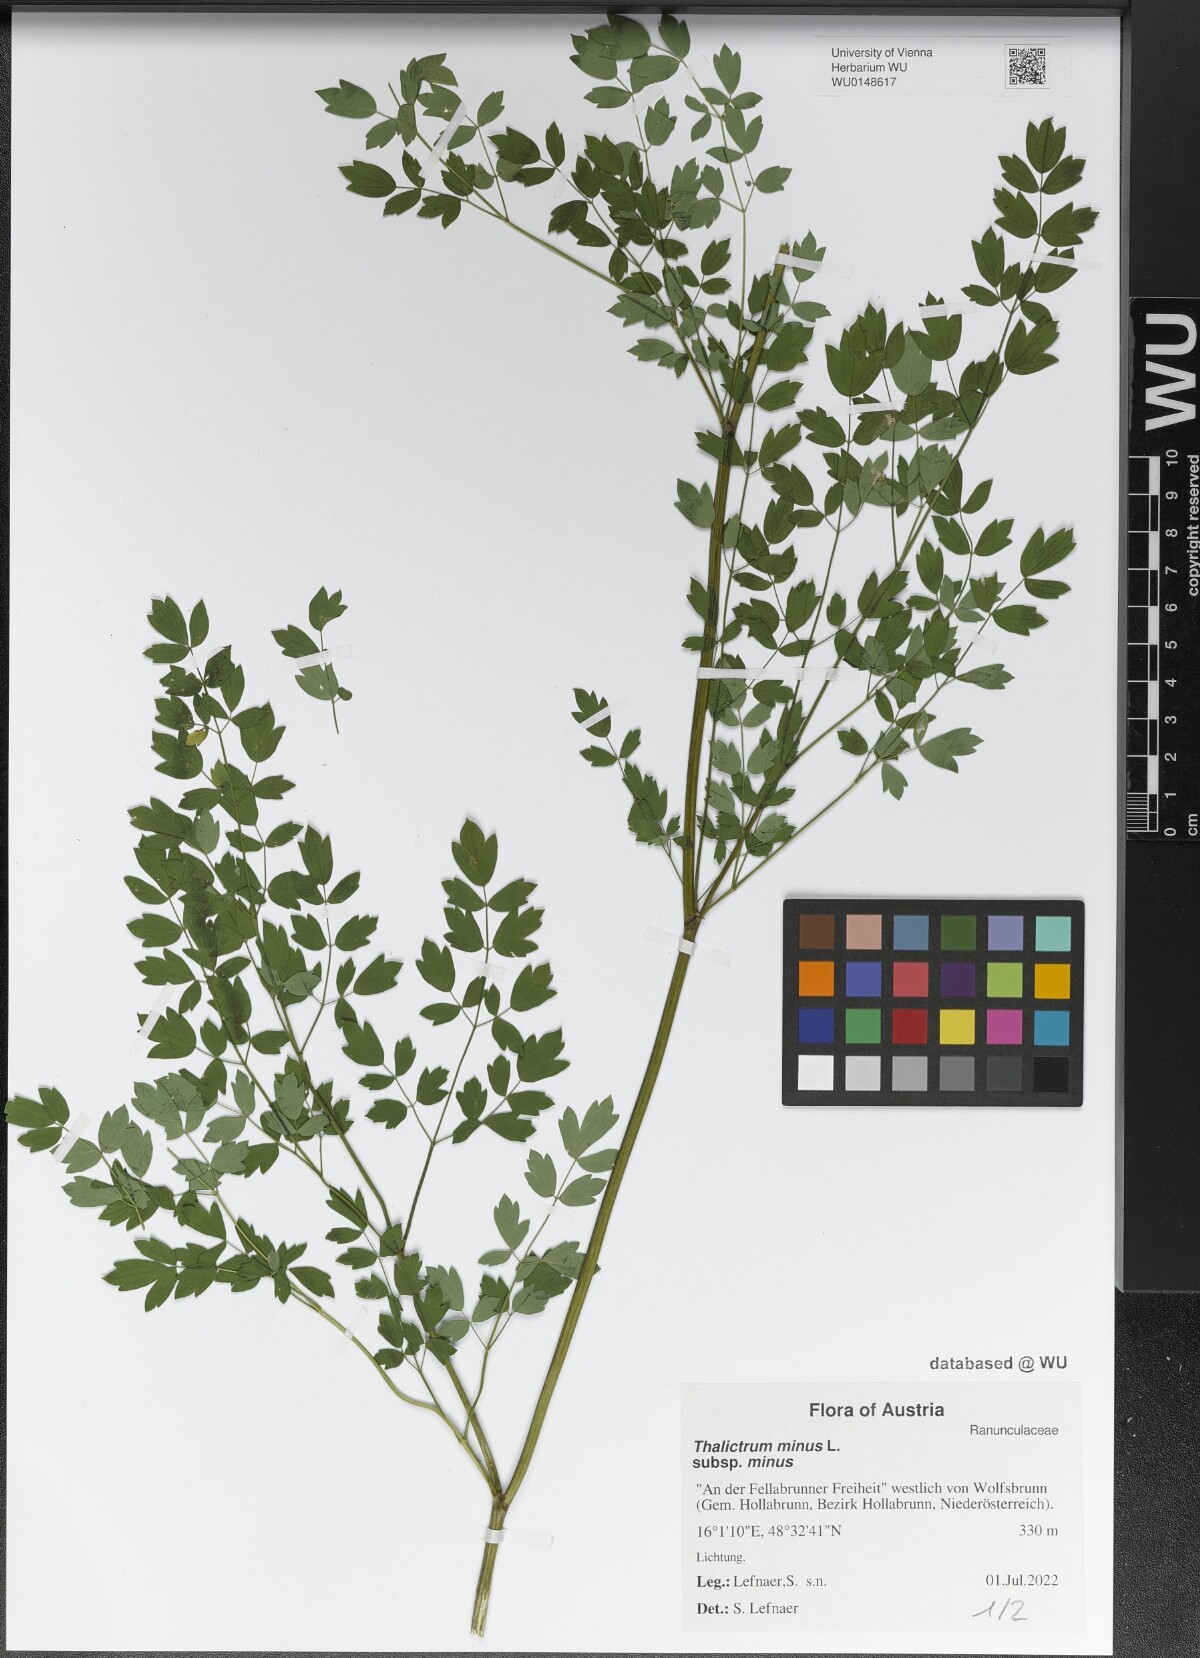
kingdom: Plantae
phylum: Tracheophyta
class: Magnoliopsida
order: Ranunculales
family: Ranunculaceae
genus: Thalictrum
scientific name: Thalictrum minus
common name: Lesser meadow-rue
